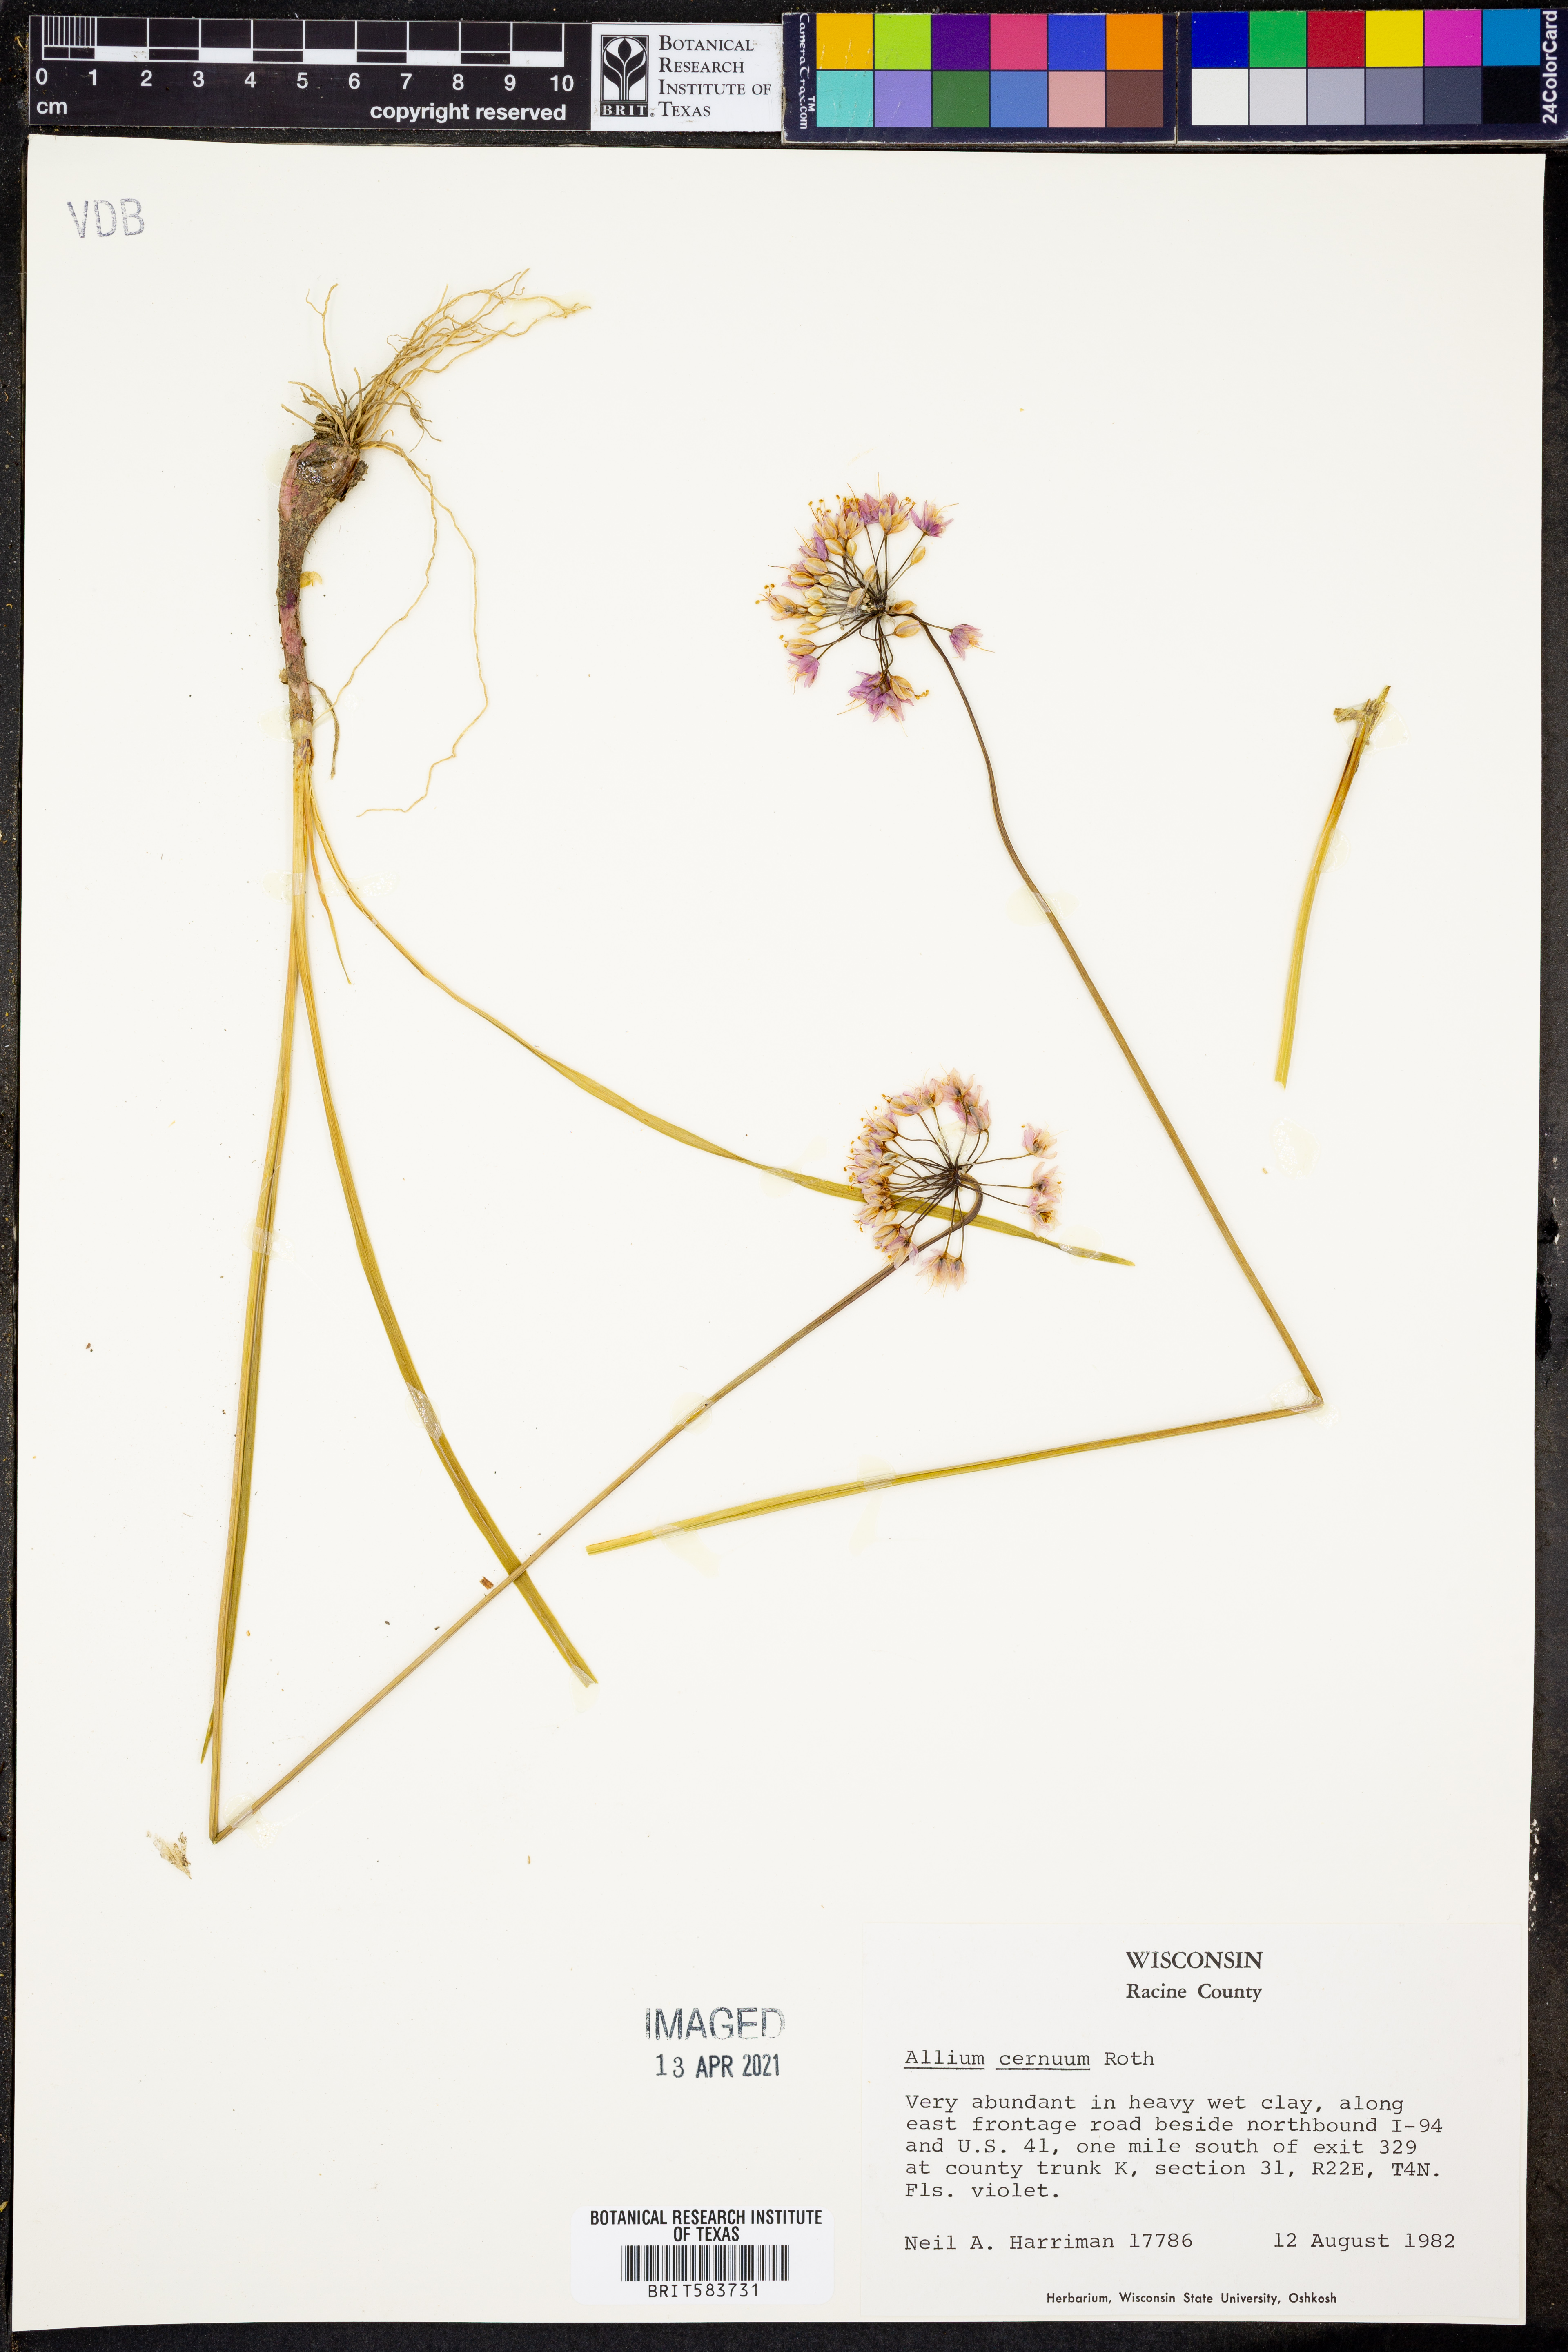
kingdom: Plantae
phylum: Tracheophyta
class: Liliopsida
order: Asparagales
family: Amaryllidaceae
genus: Allium
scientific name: Allium cernuum
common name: Nodding onion
